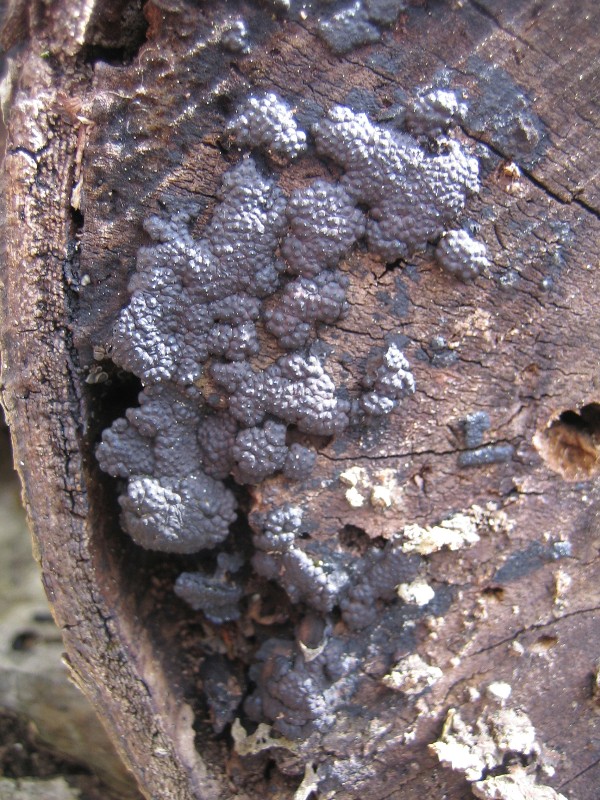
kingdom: Fungi
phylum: Ascomycota
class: Sordariomycetes
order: Xylariales
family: Hypoxylaceae
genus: Jackrogersella
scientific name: Jackrogersella multiformis
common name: foranderlig kulbær
